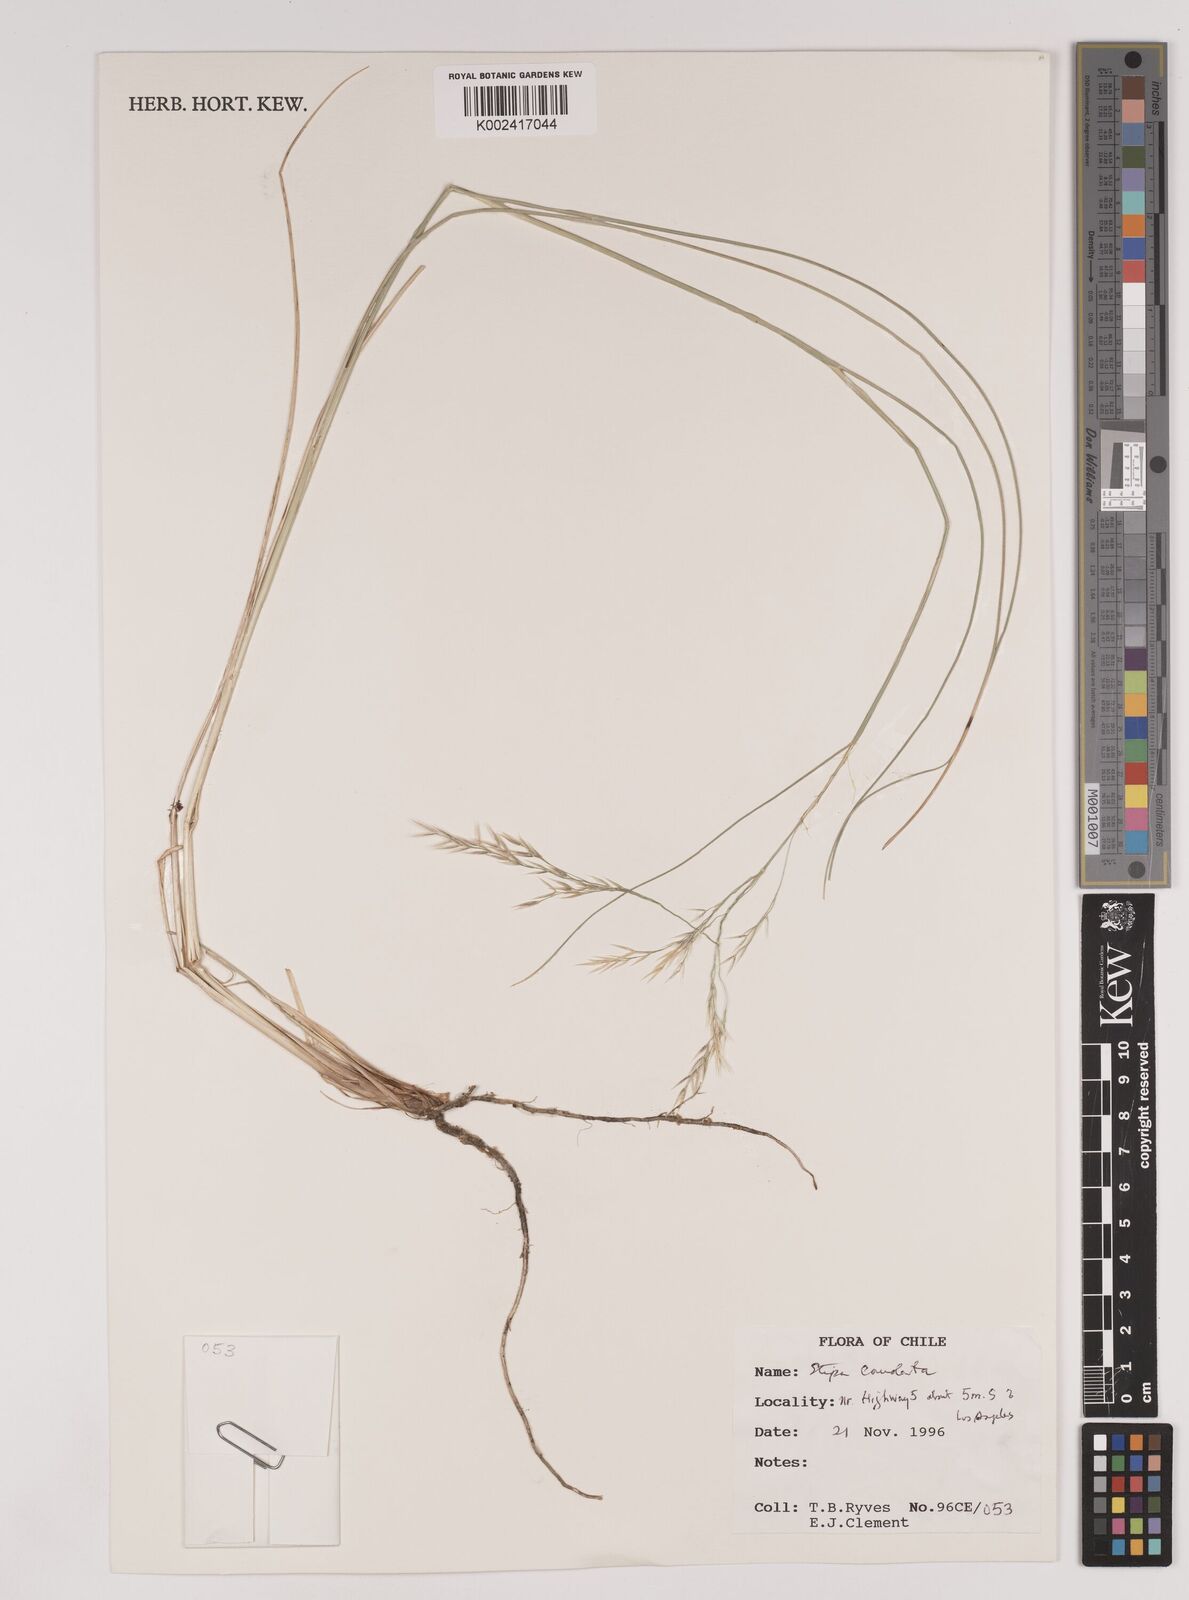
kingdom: Plantae
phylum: Tracheophyta
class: Liliopsida
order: Poales
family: Poaceae
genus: Amelichloa
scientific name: Amelichloa caudata
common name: Chilean ricegrass
